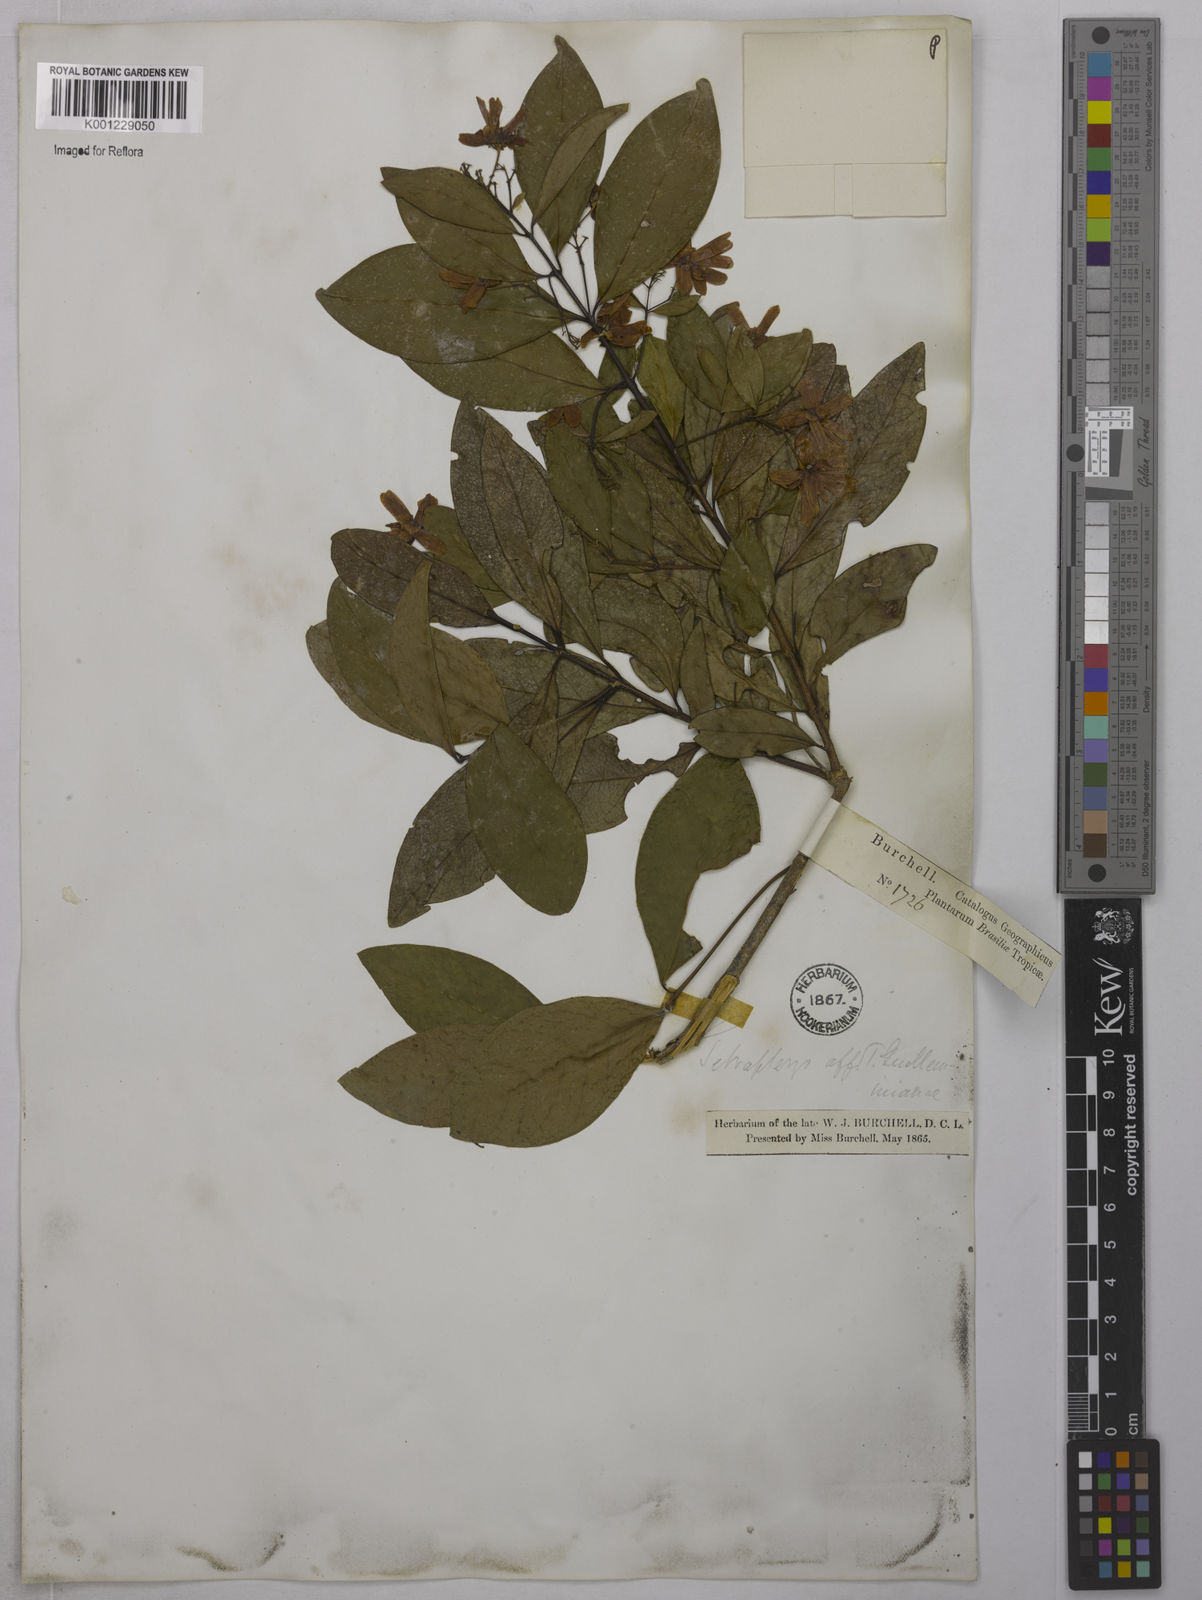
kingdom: Plantae
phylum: Tracheophyta
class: Magnoliopsida
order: Malpighiales
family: Malpighiaceae
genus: Niedenzuella
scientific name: Niedenzuella acutifolia
